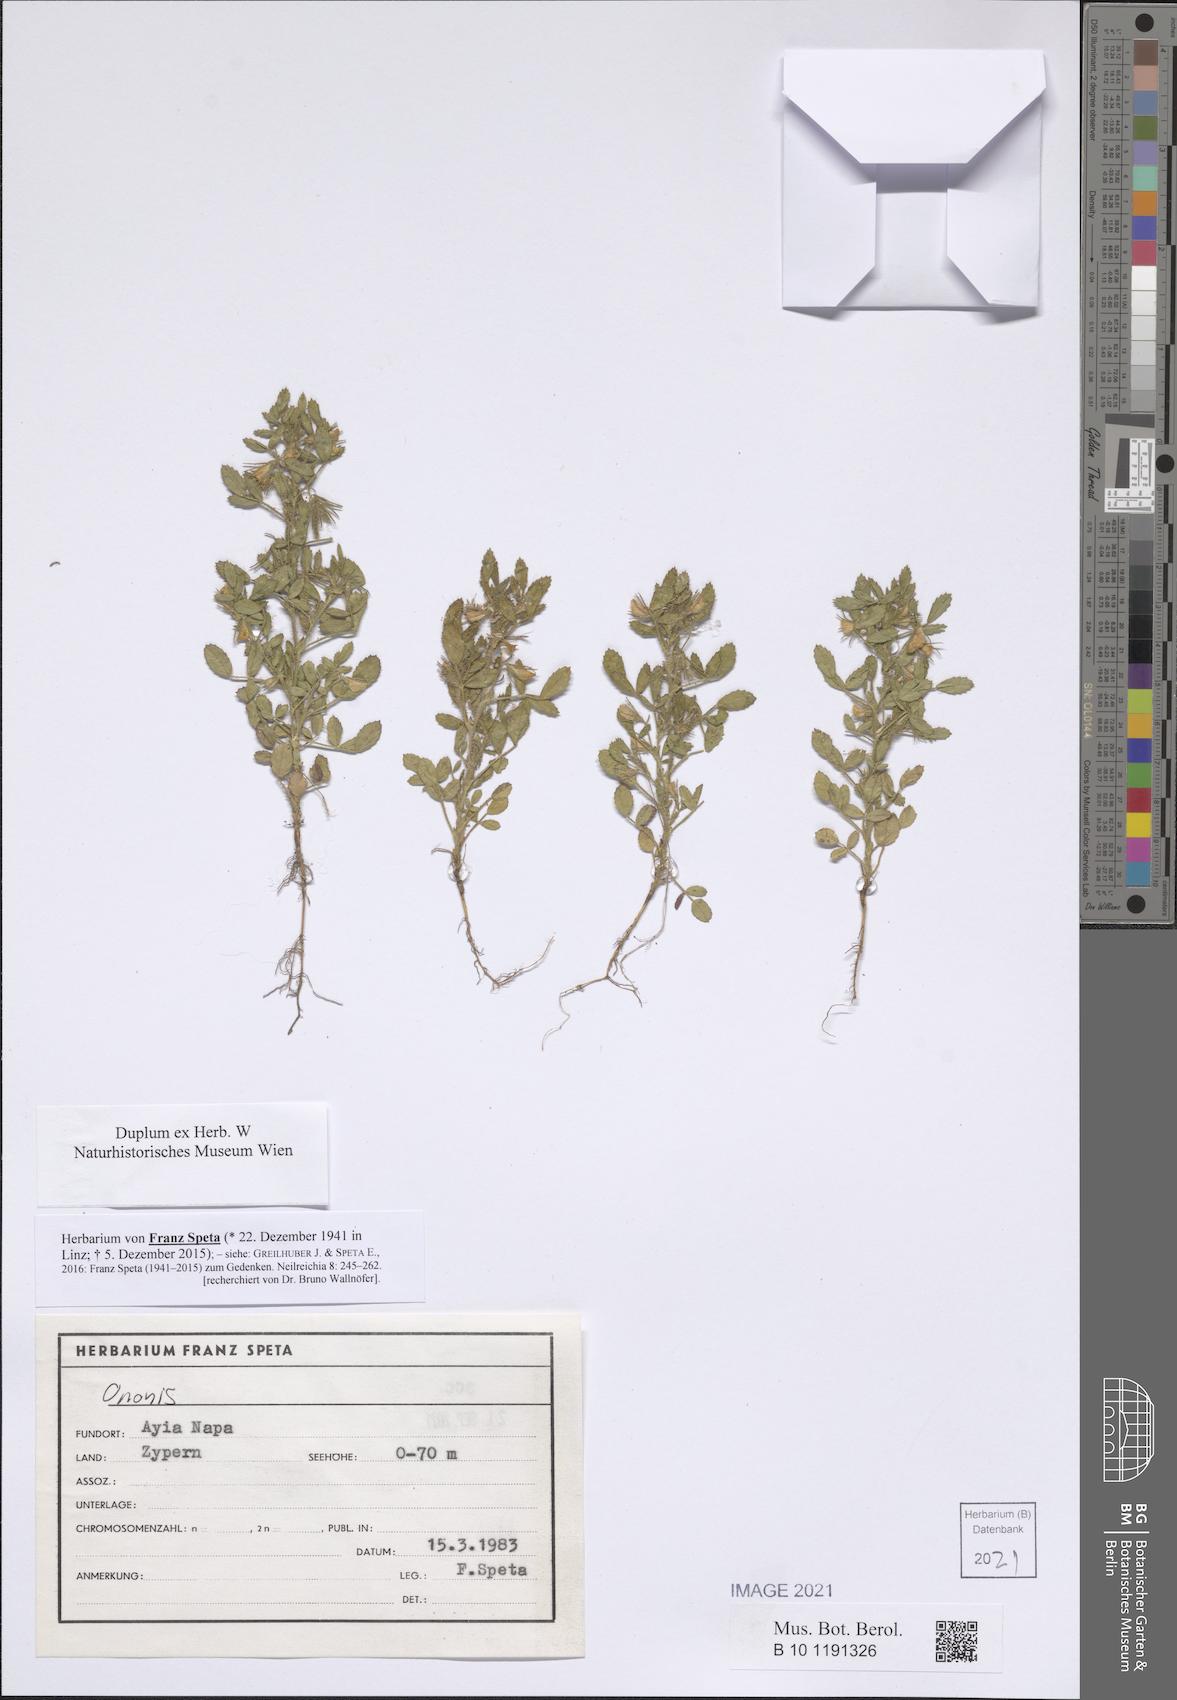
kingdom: Plantae
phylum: Tracheophyta
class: Magnoliopsida
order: Fabales
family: Fabaceae
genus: Ononis
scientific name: Ononis
